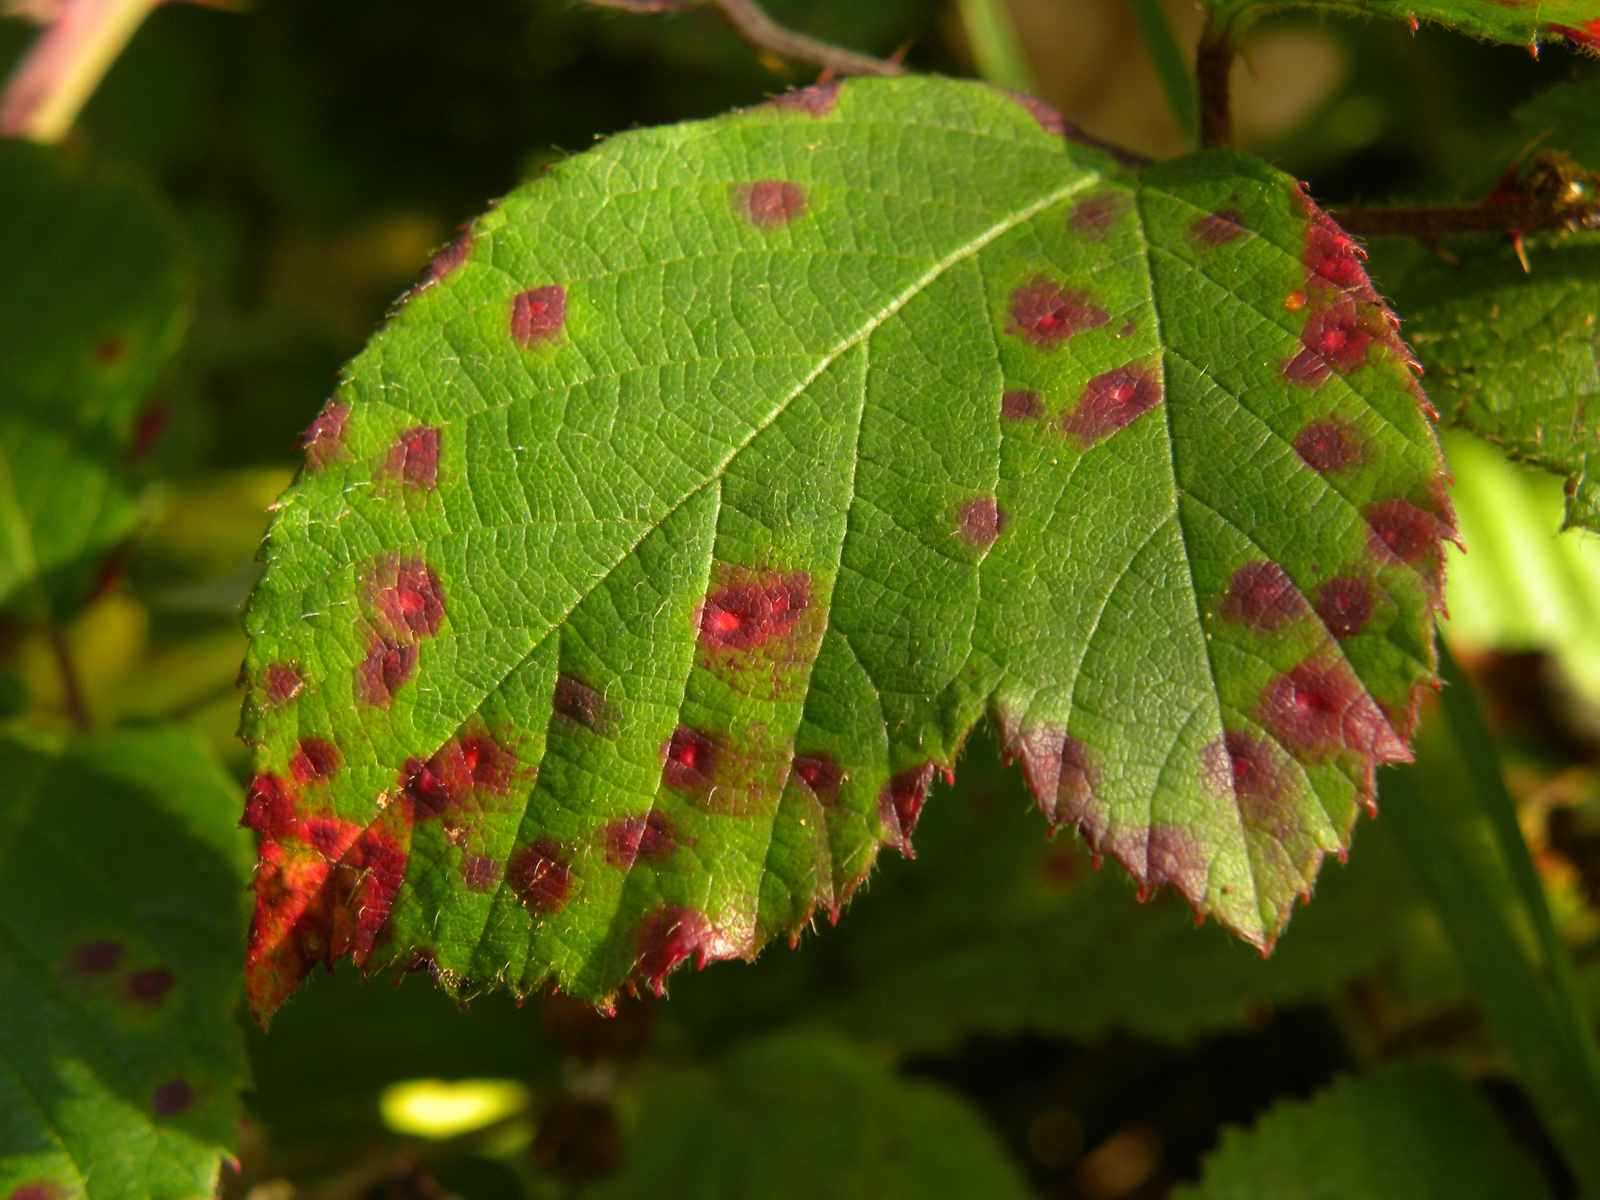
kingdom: Fungi
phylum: Basidiomycota
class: Pucciniomycetes
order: Pucciniales
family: Phragmidiaceae
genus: Phragmidium
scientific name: Phragmidium
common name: flercellerust
